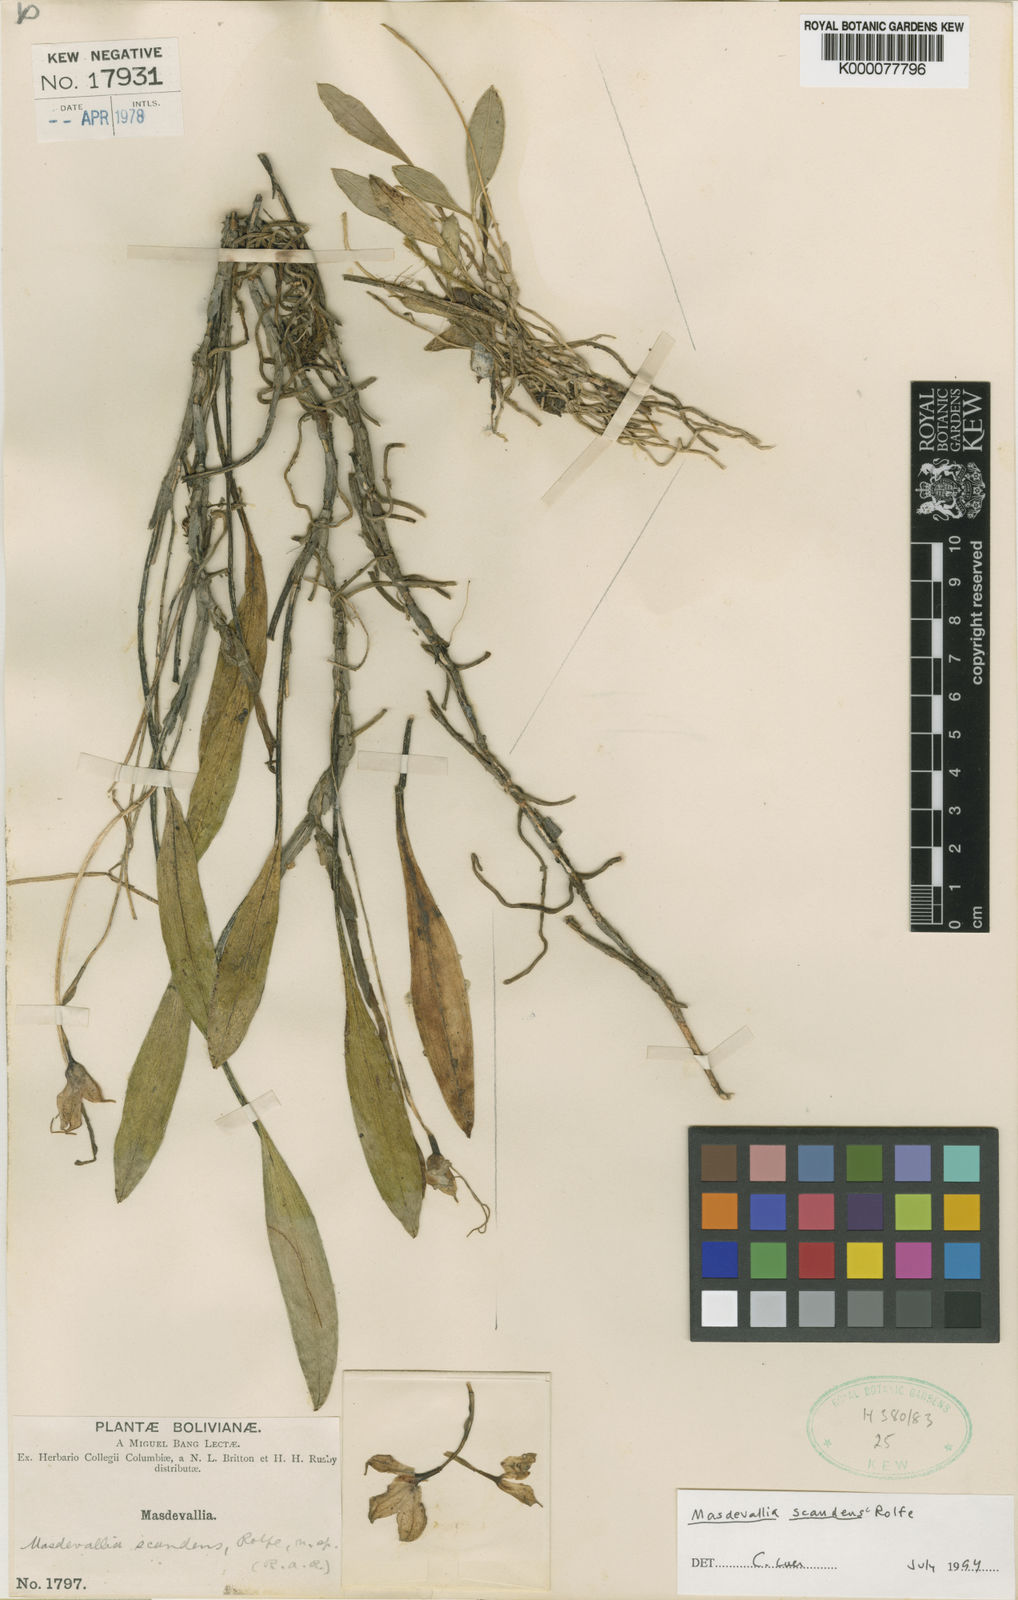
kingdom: Plantae
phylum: Tracheophyta
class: Liliopsida
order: Asparagales
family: Orchidaceae
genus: Masdevallia
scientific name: Masdevallia scandens
